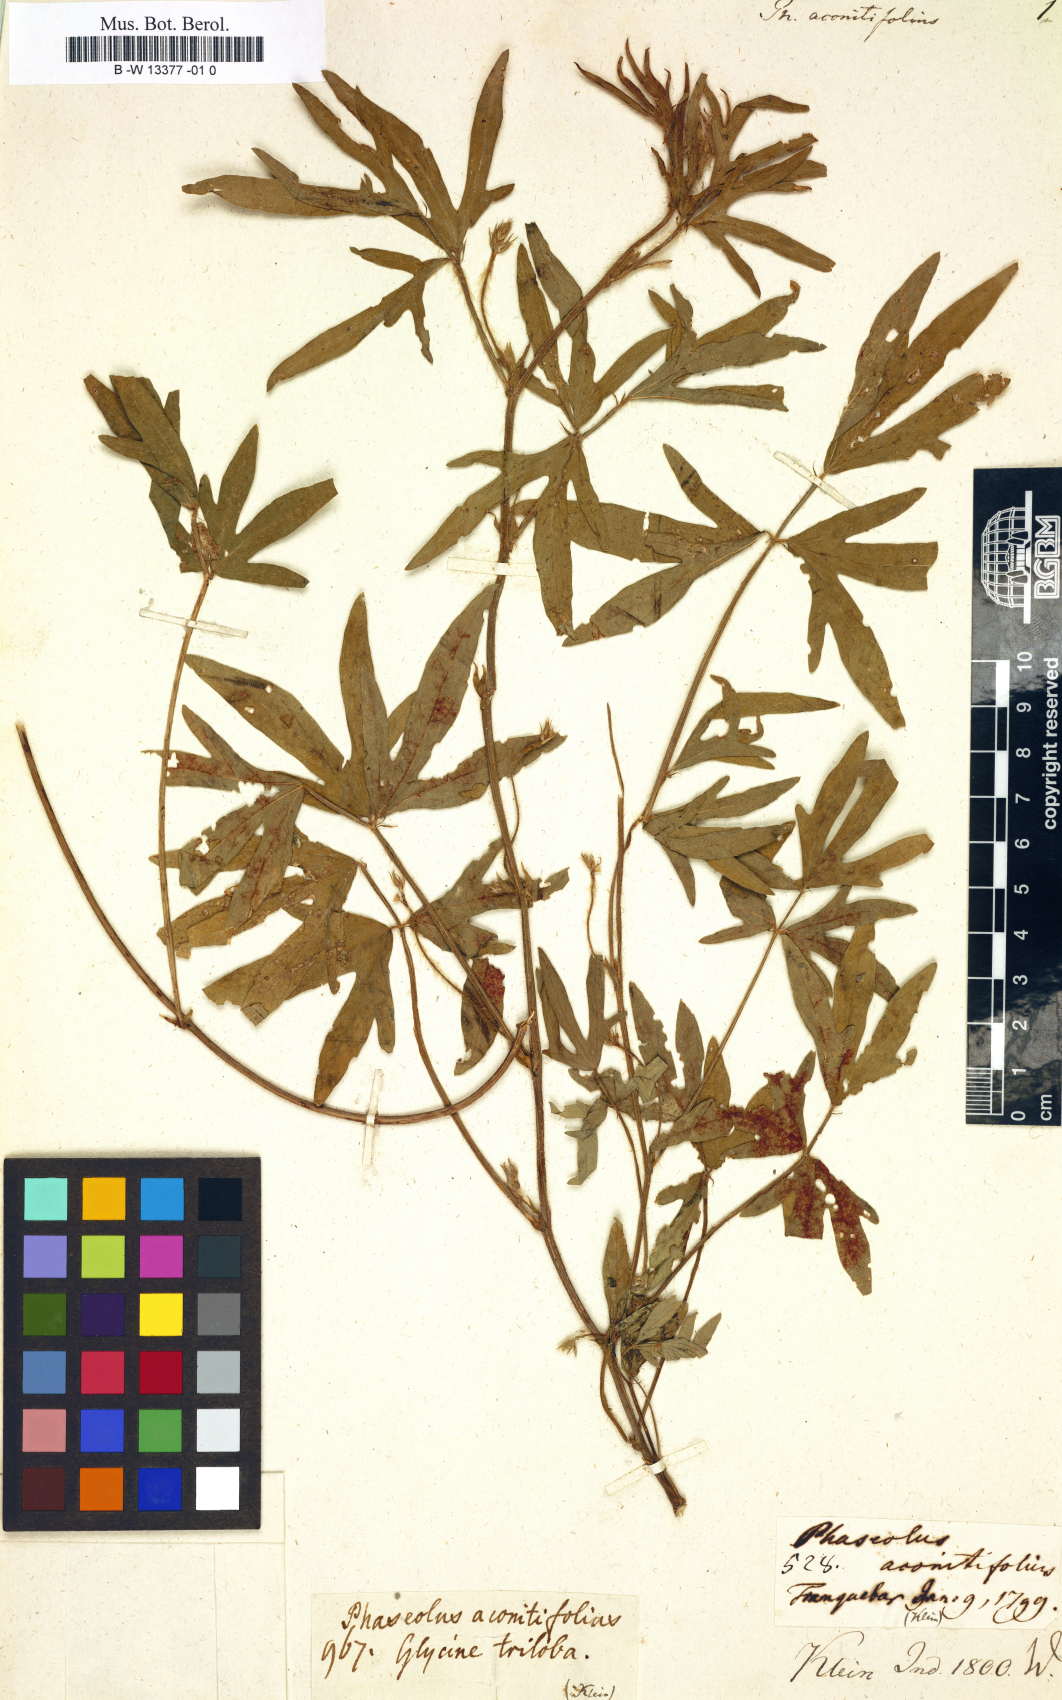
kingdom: Plantae
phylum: Tracheophyta
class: Magnoliopsida
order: Fabales
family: Fabaceae
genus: Vigna
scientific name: Vigna aconitifolia
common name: Dew bean
